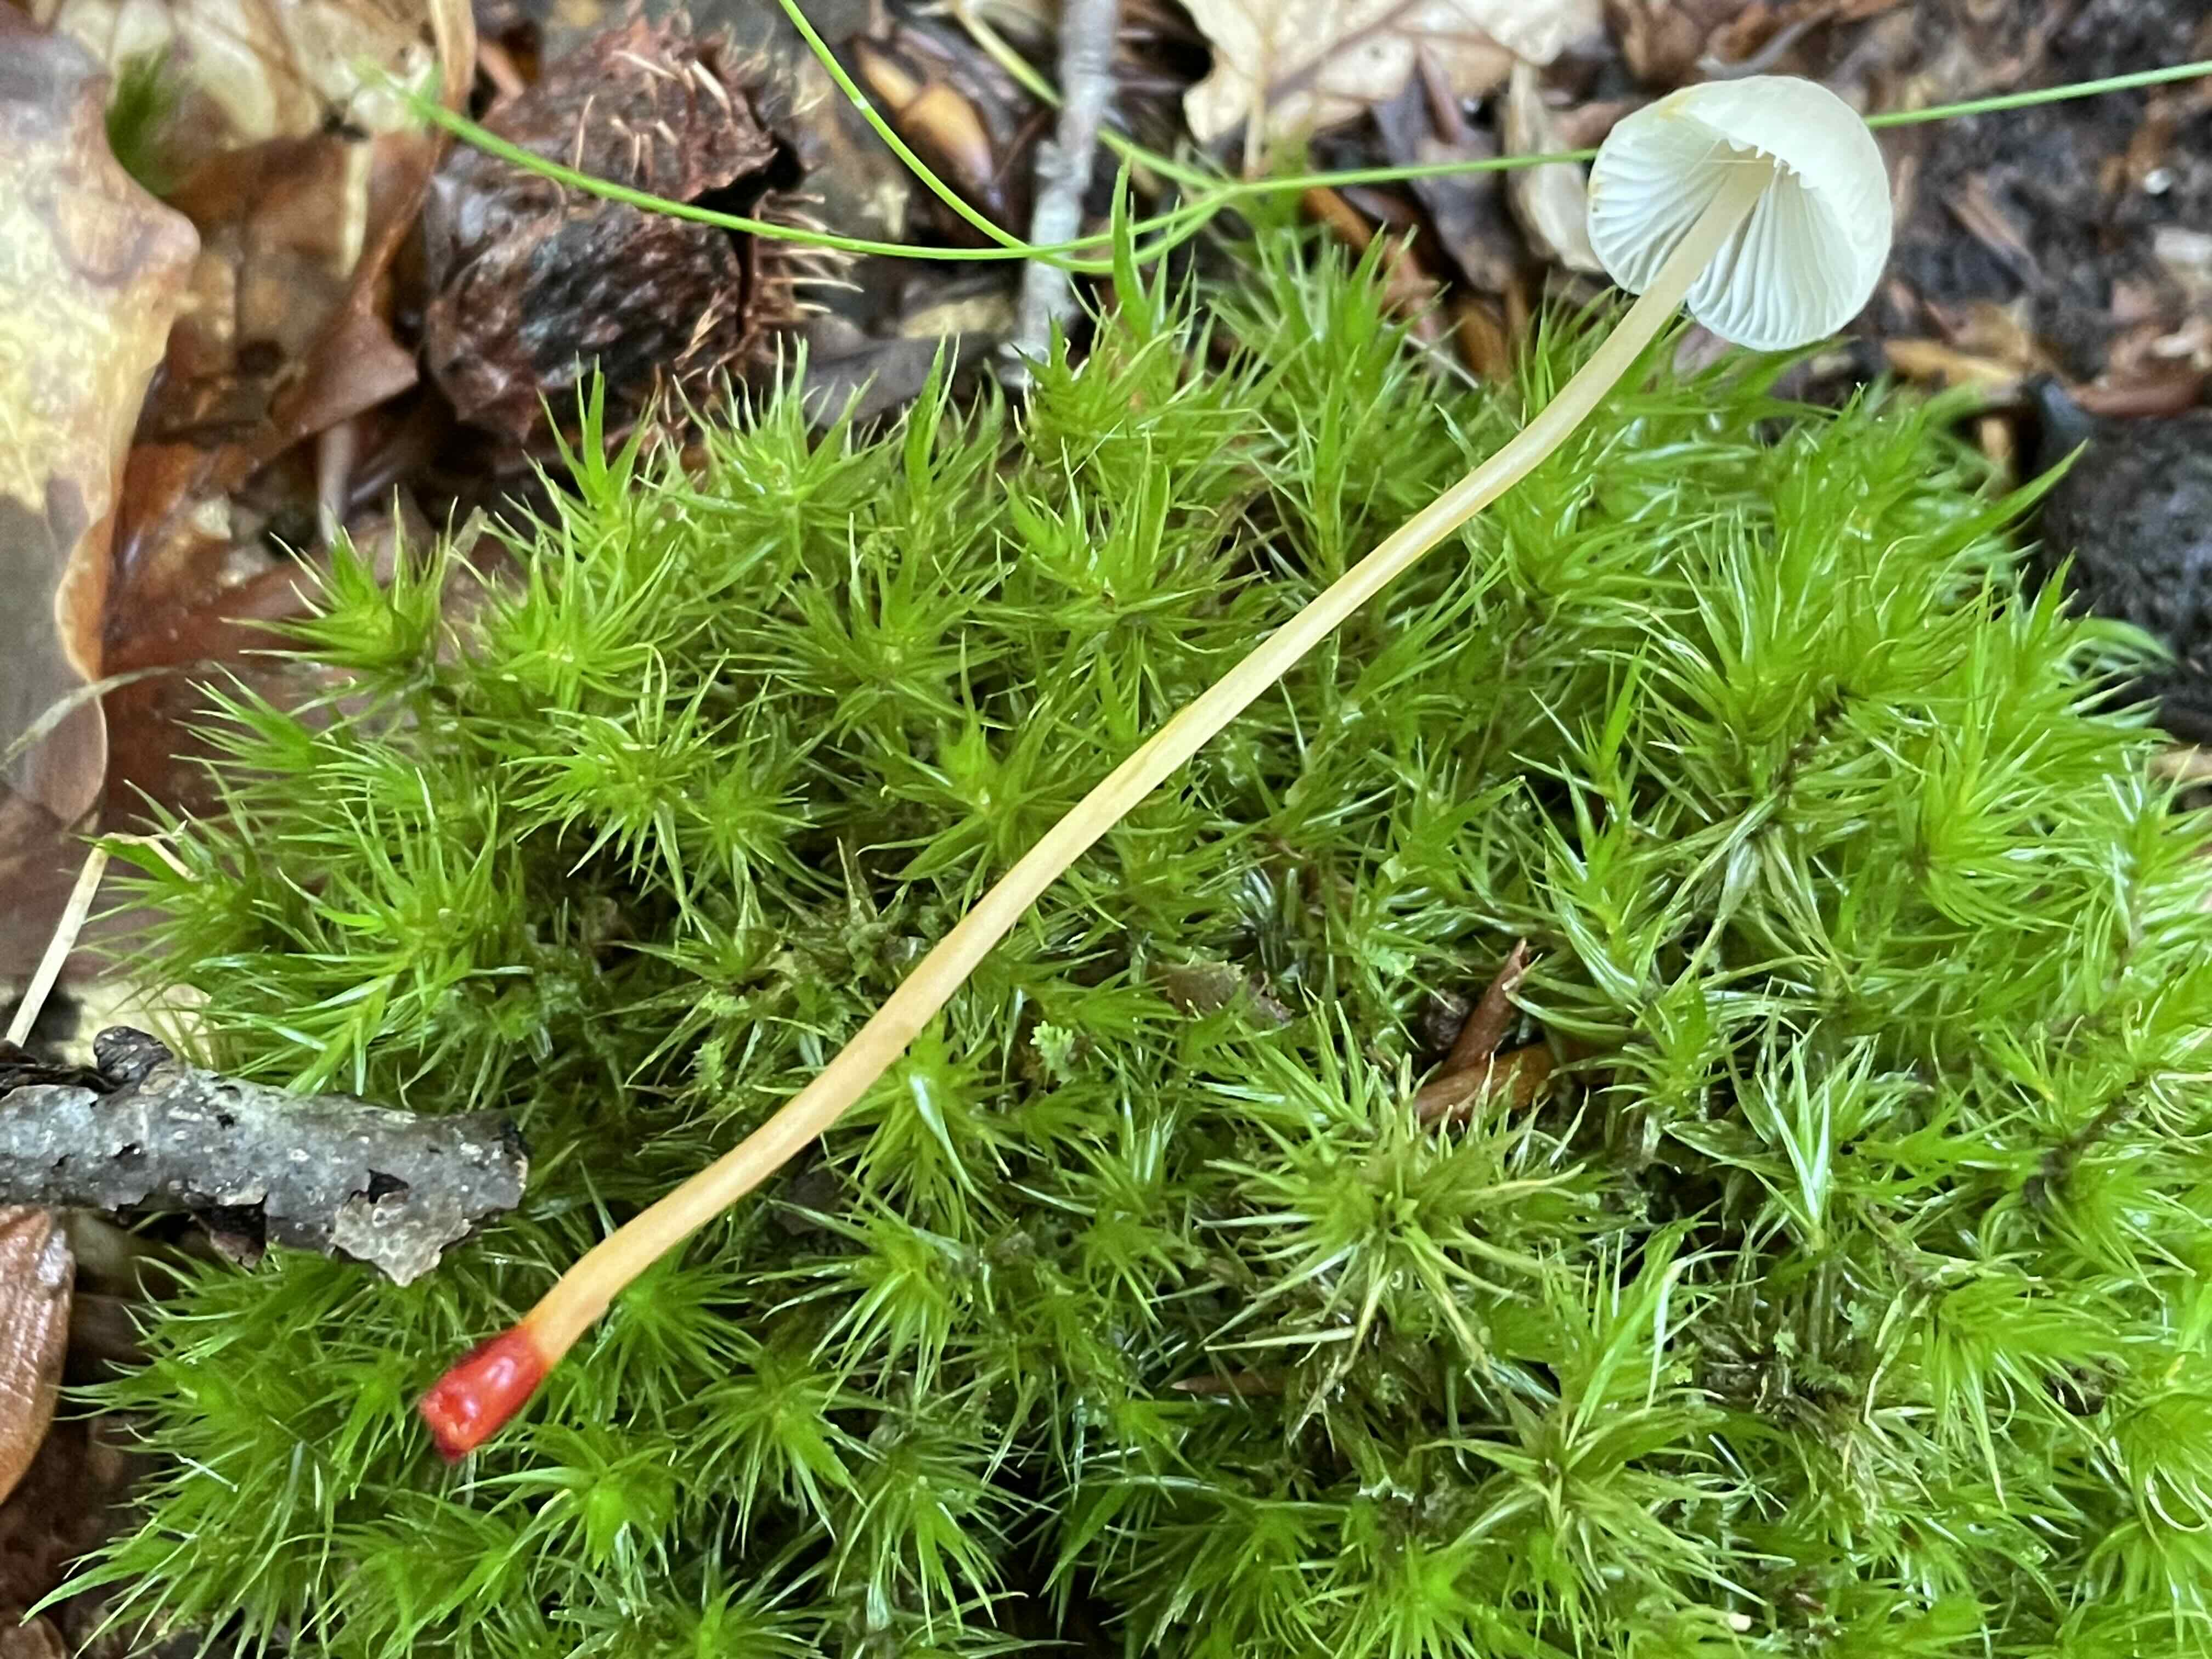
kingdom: Fungi
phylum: Basidiomycota
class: Agaricomycetes
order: Agaricales
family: Mycenaceae
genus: Mycena
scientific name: Mycena crocata
